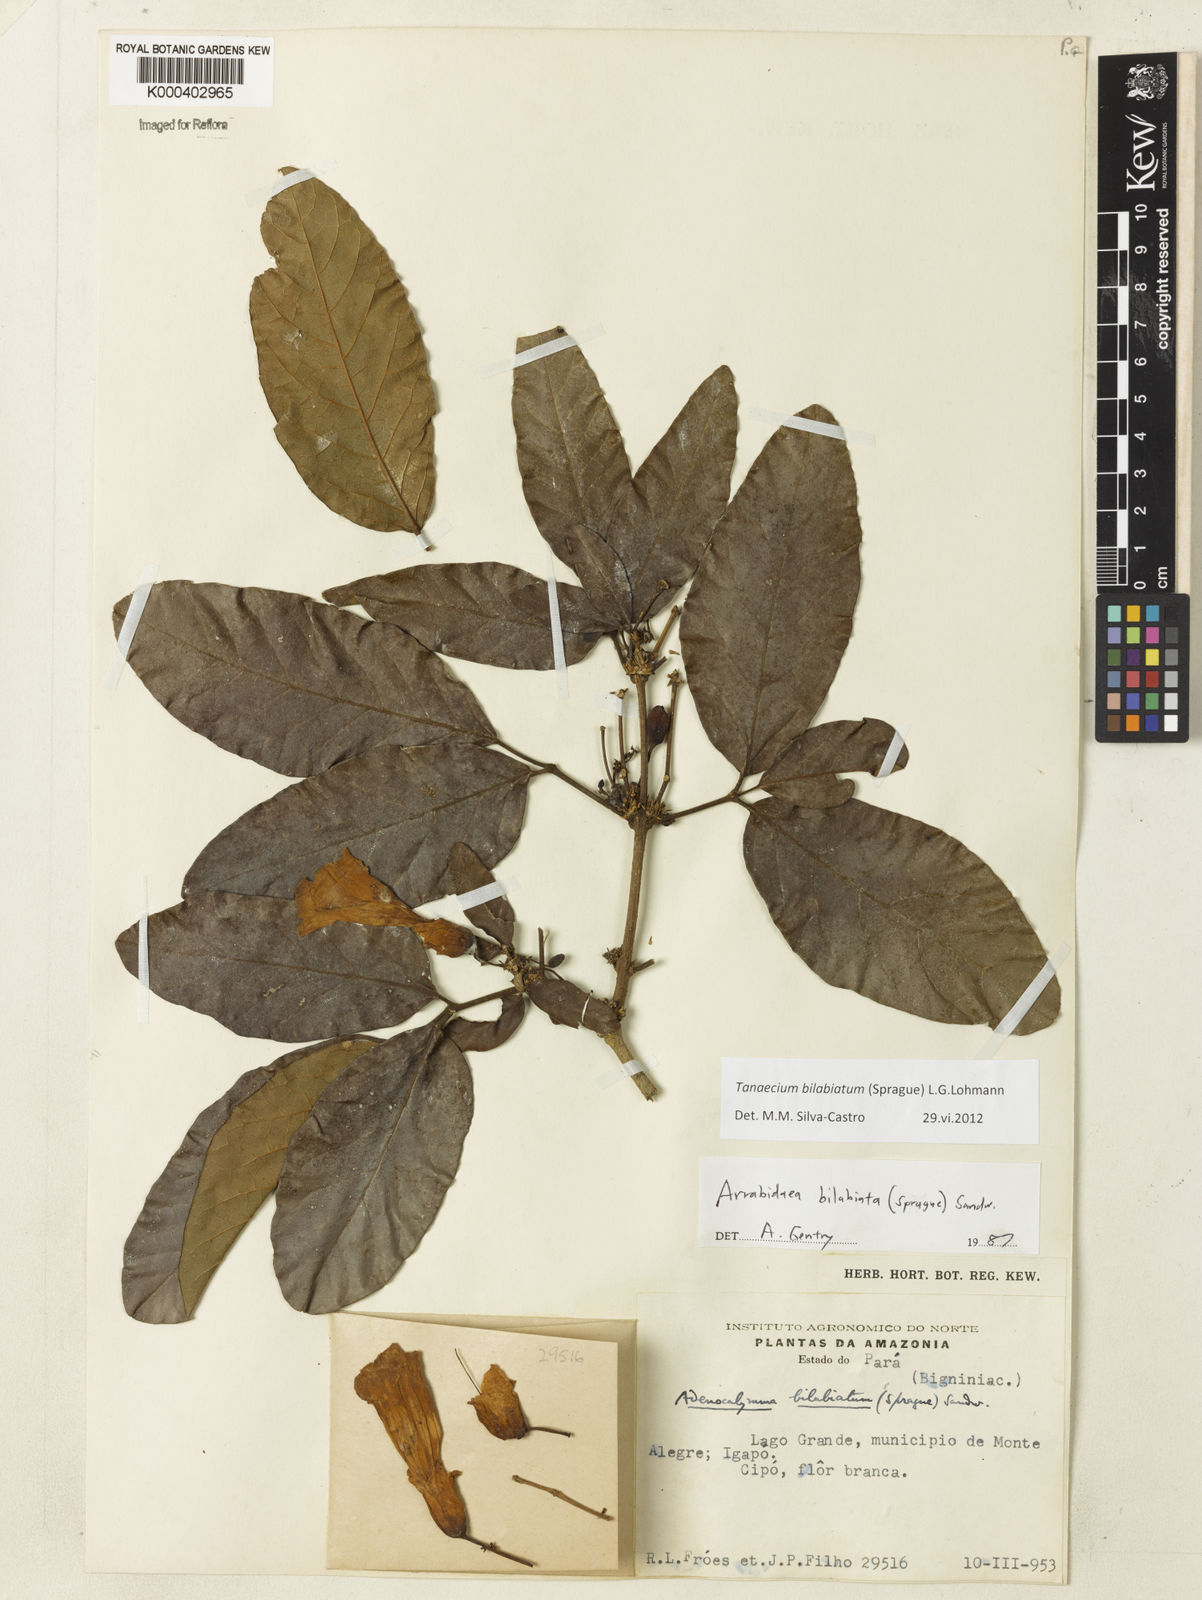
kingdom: Plantae
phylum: Tracheophyta
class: Magnoliopsida
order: Lamiales
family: Bignoniaceae
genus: Tanaecium
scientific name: Tanaecium bilabiatum
